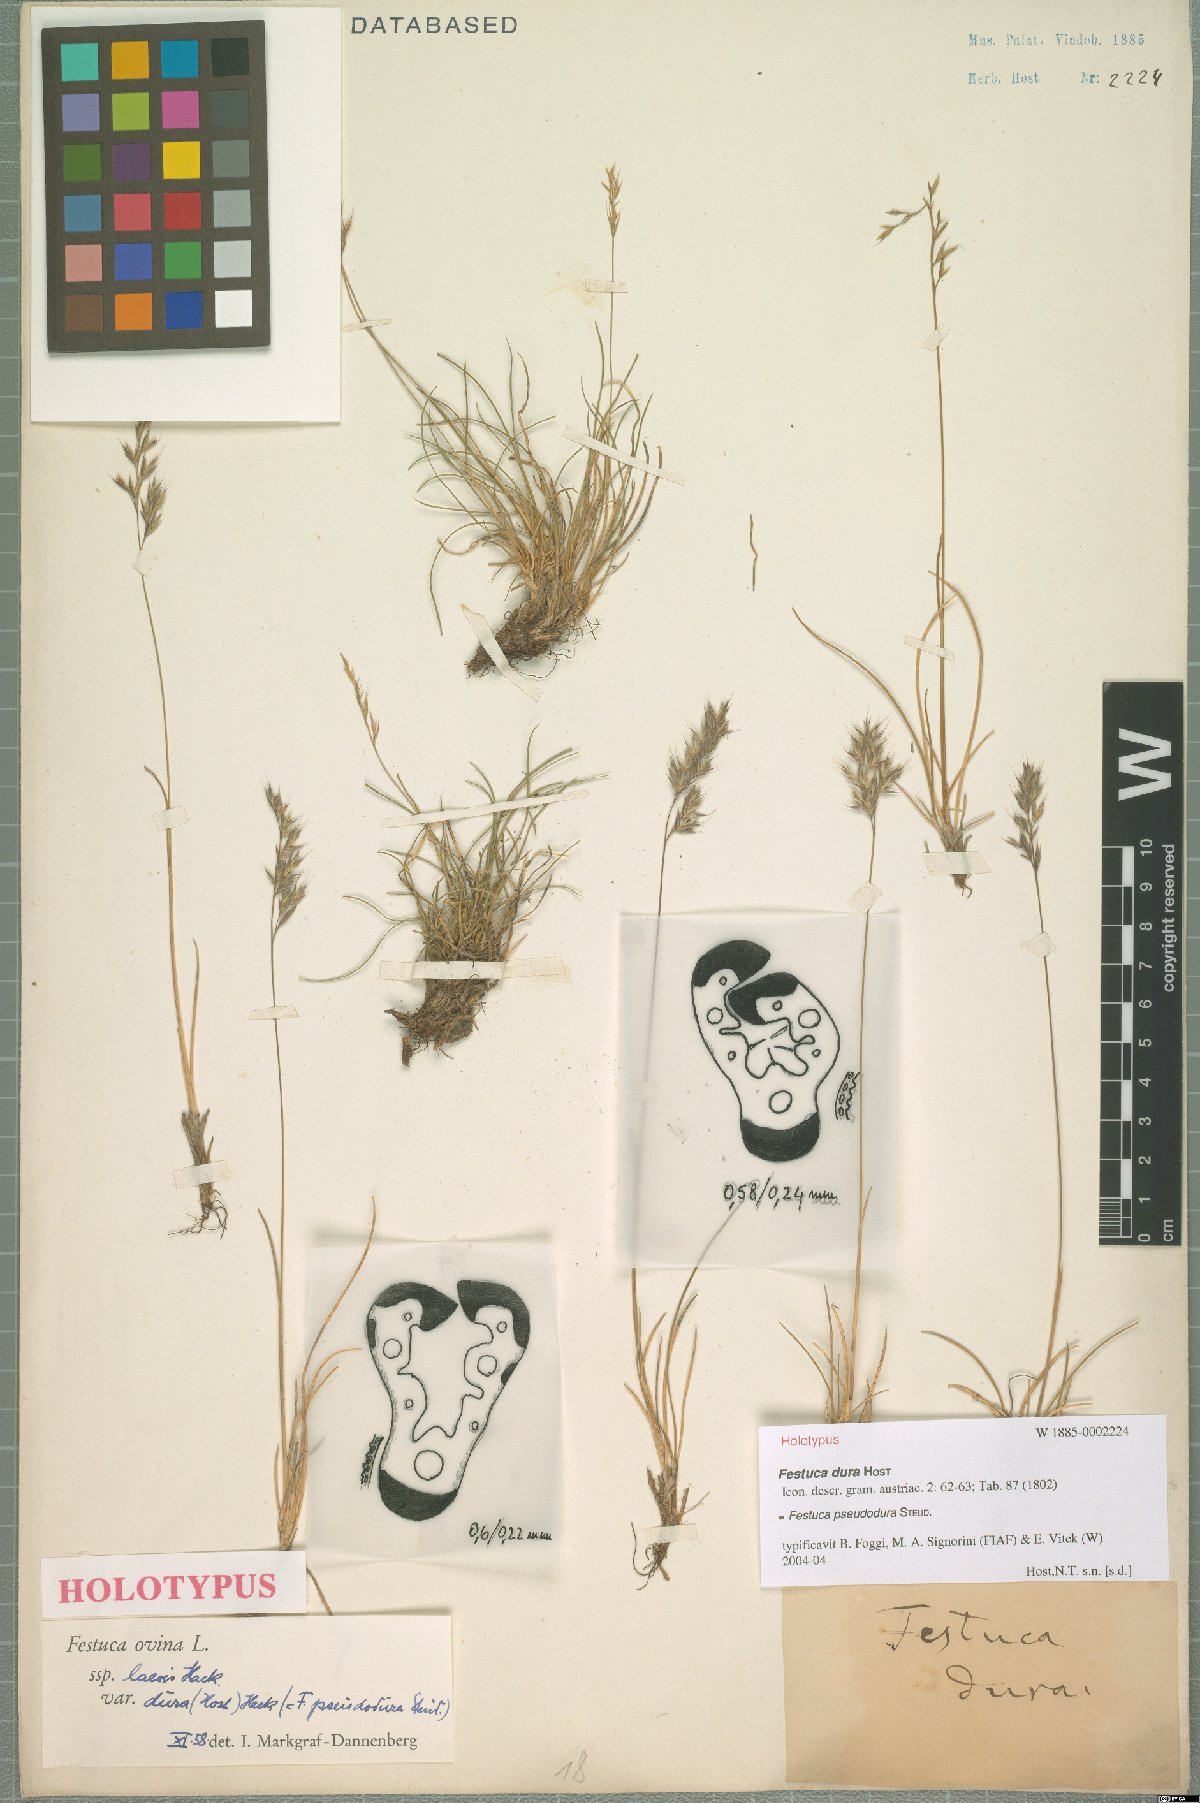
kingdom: Plantae
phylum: Tracheophyta
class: Liliopsida
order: Poales
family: Poaceae
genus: Festuca
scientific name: Festuca pseudodura
